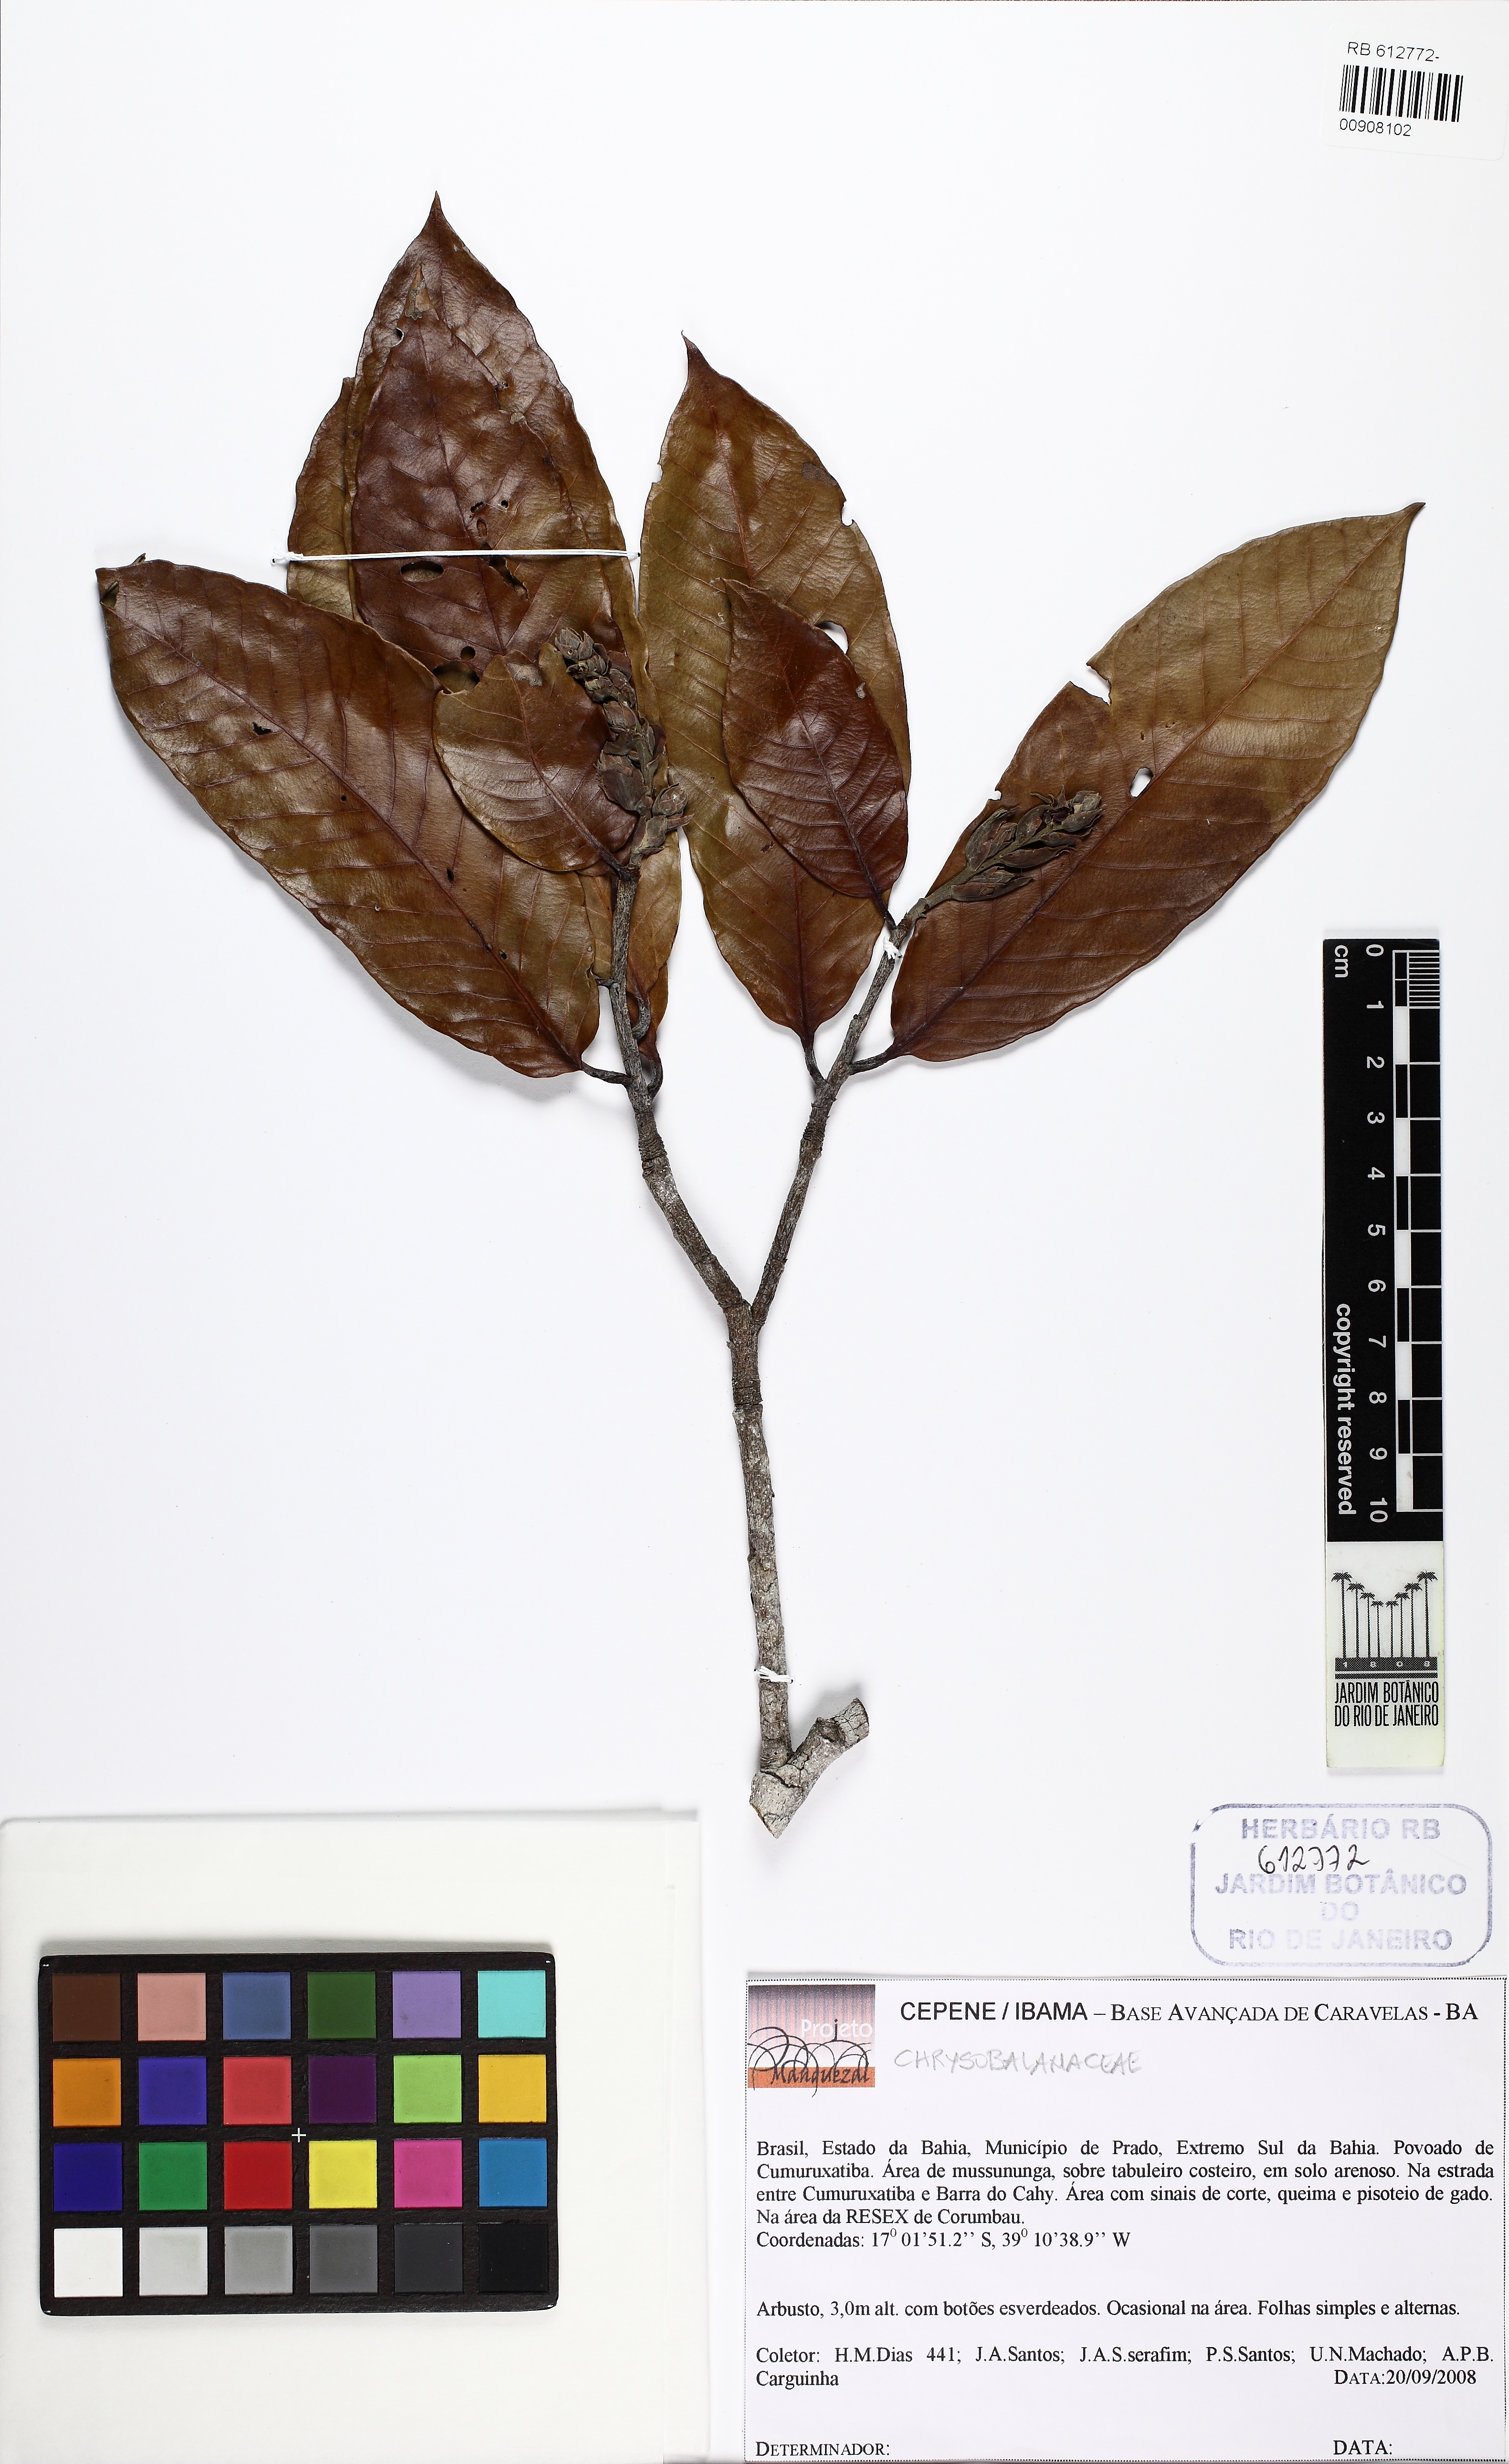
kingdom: Plantae
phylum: Tracheophyta
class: Magnoliopsida
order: Malpighiales
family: Chrysobalanaceae
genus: Couepia
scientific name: Couepia
